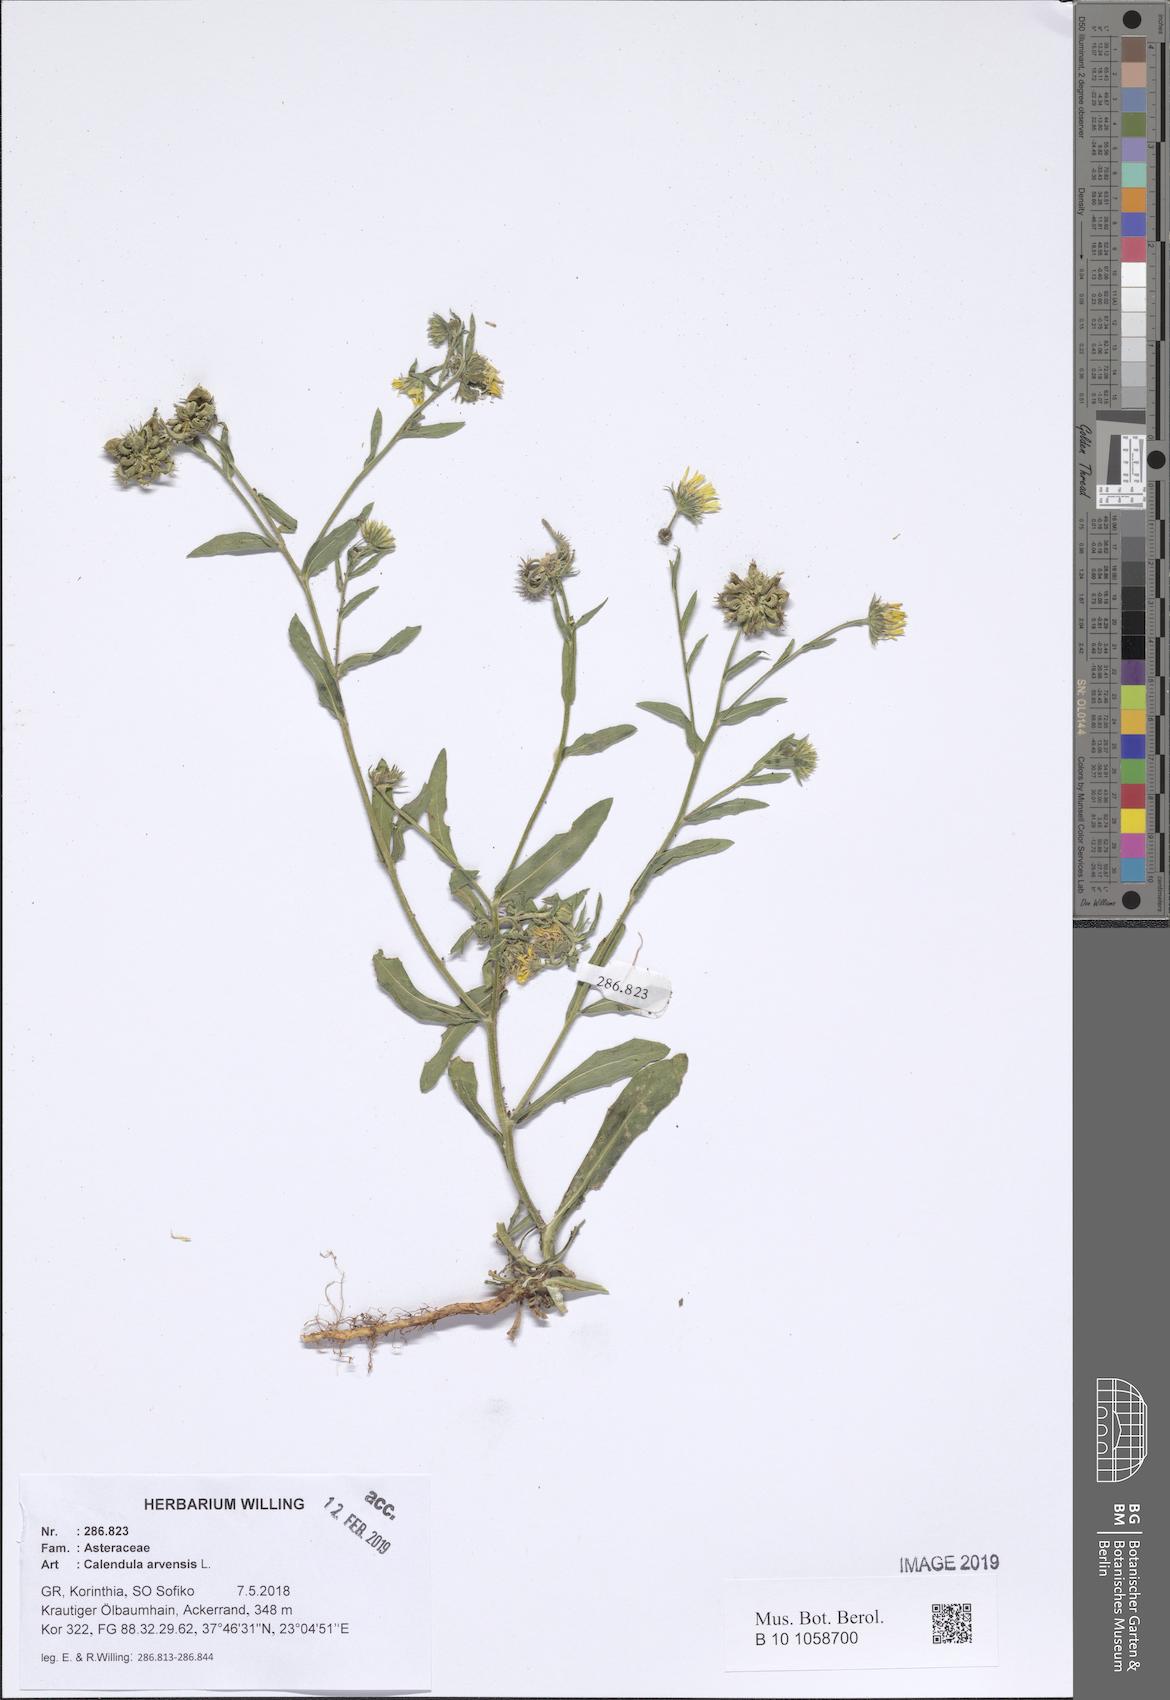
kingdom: Plantae
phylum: Tracheophyta
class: Magnoliopsida
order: Asterales
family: Asteraceae
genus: Calendula
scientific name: Calendula arvensis
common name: Field marigold
